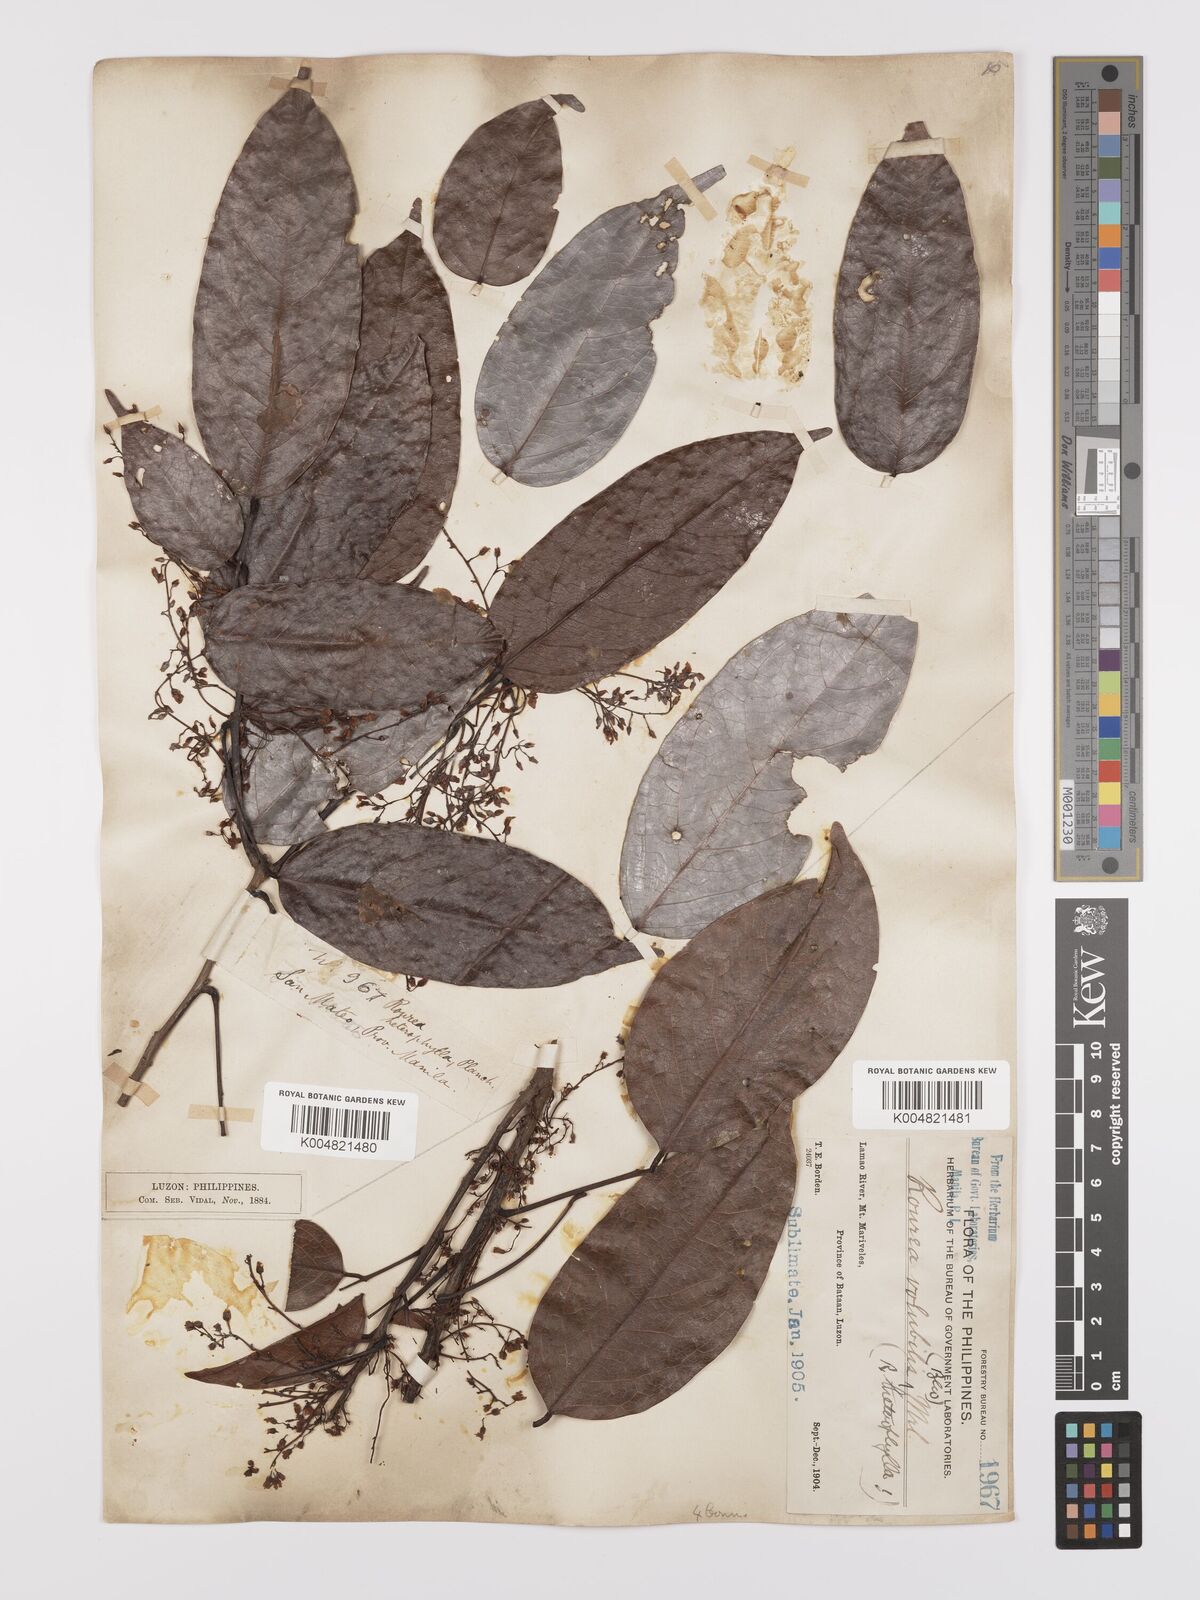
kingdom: Plantae
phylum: Tracheophyta
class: Magnoliopsida
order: Oxalidales
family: Connaraceae
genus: Rourea
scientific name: Rourea minor
